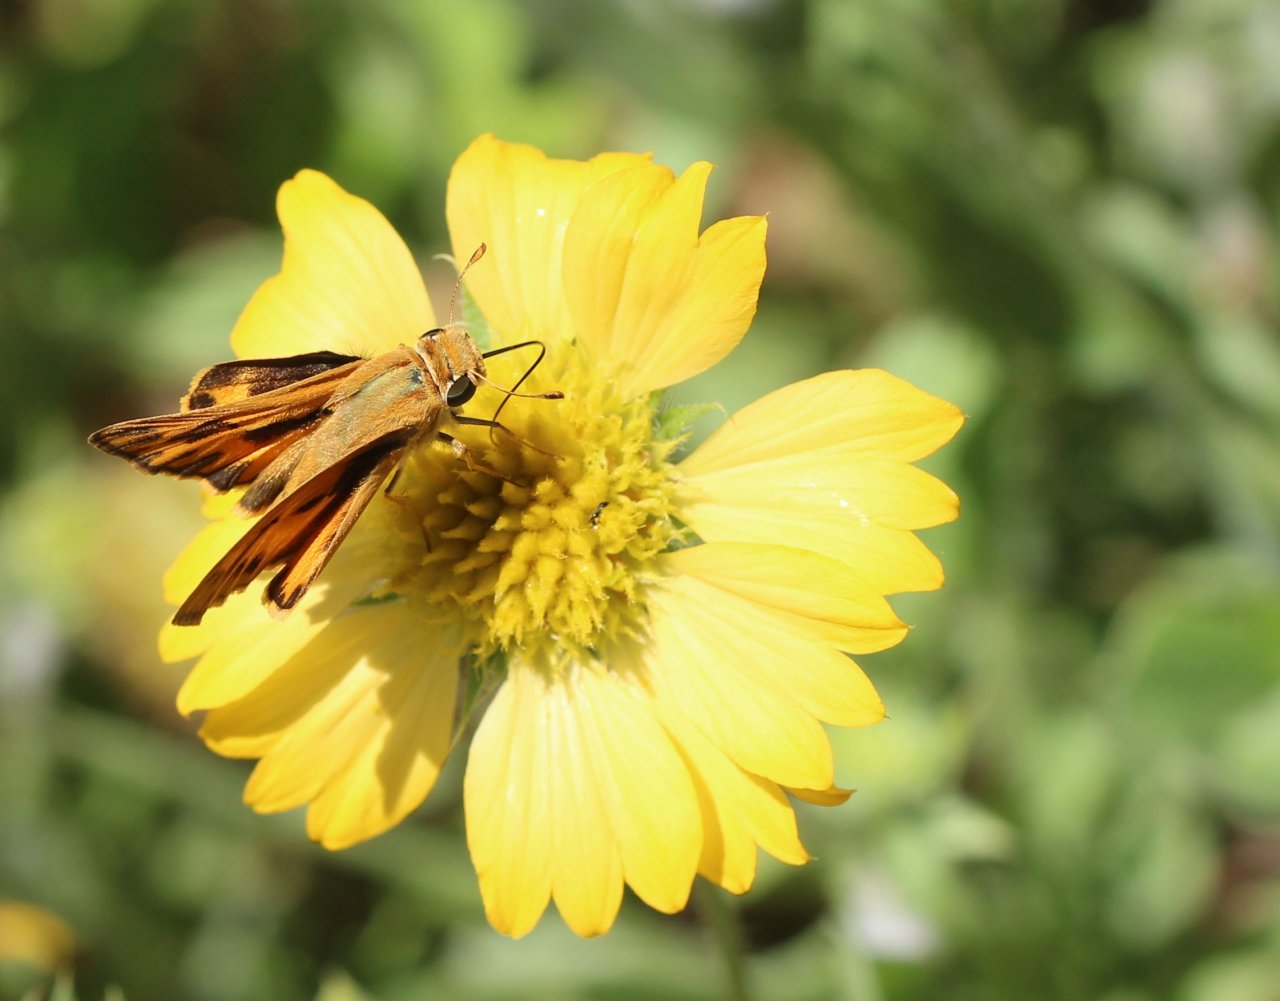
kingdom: Animalia
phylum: Arthropoda
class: Insecta
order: Lepidoptera
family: Hesperiidae
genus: Hylephila
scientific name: Hylephila phyleus
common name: Fiery Skipper
